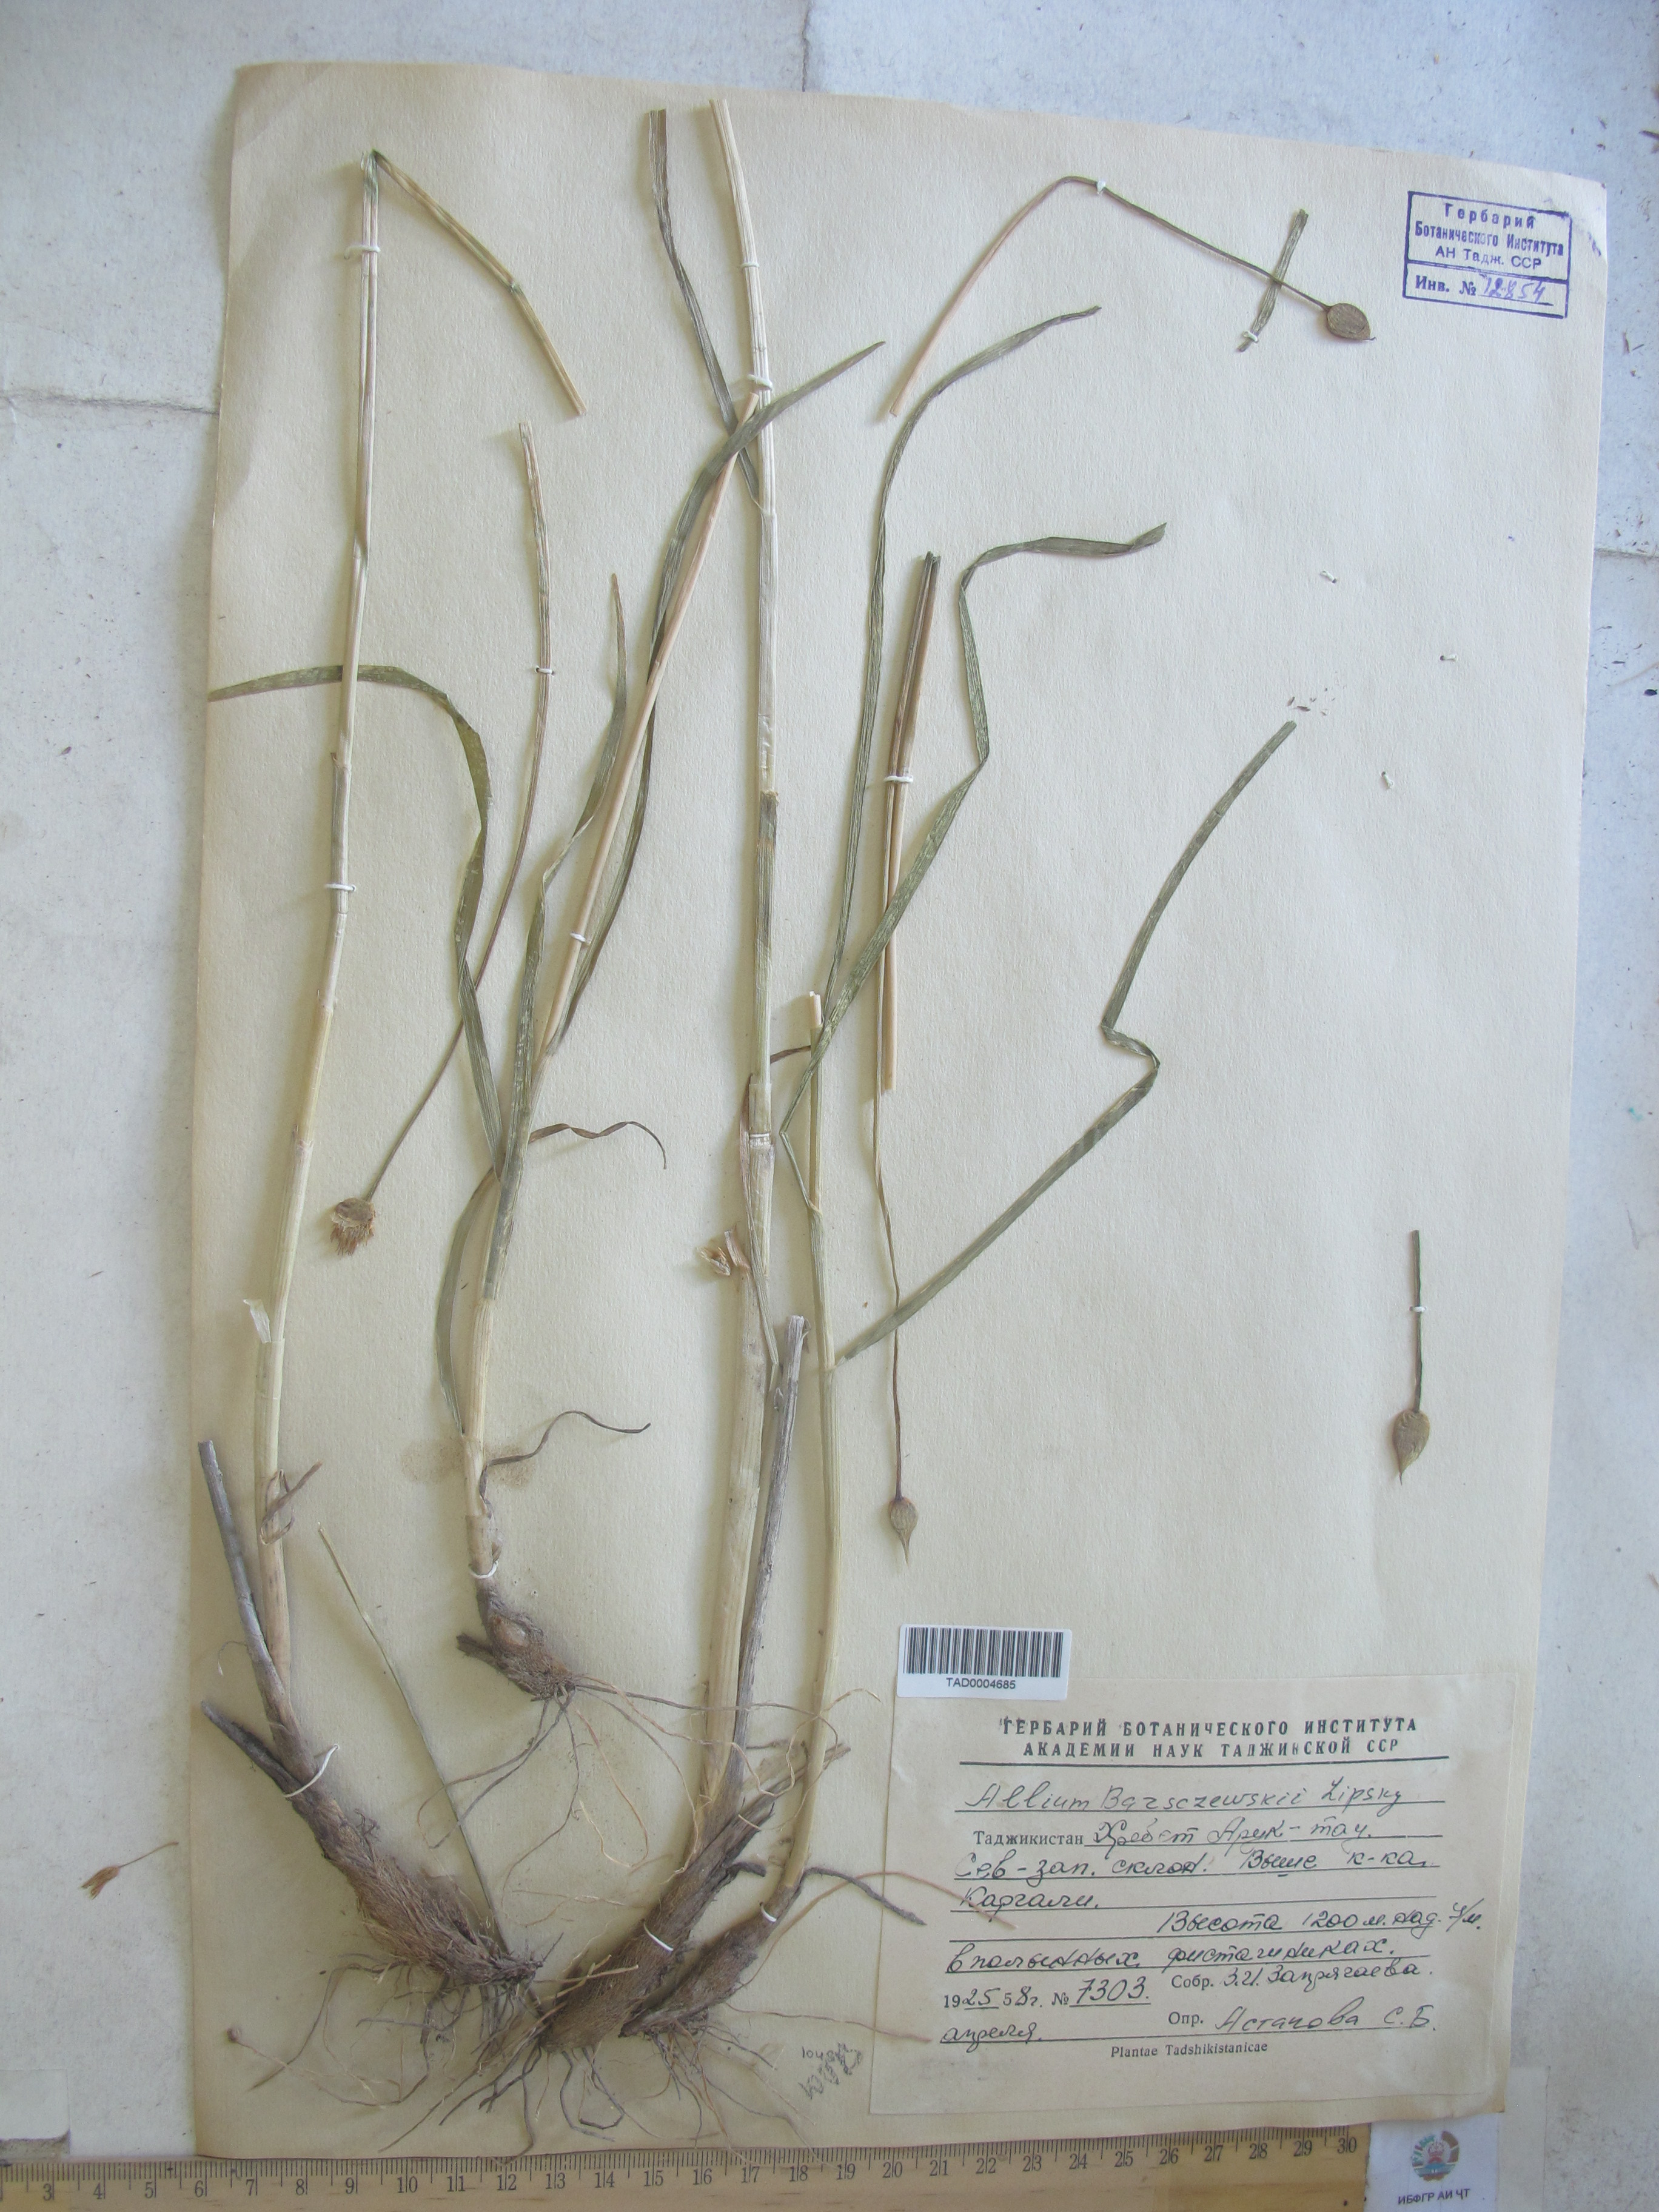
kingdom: Plantae
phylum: Tracheophyta
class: Liliopsida
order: Asparagales
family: Amaryllidaceae
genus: Allium
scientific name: Allium barsczewskii
